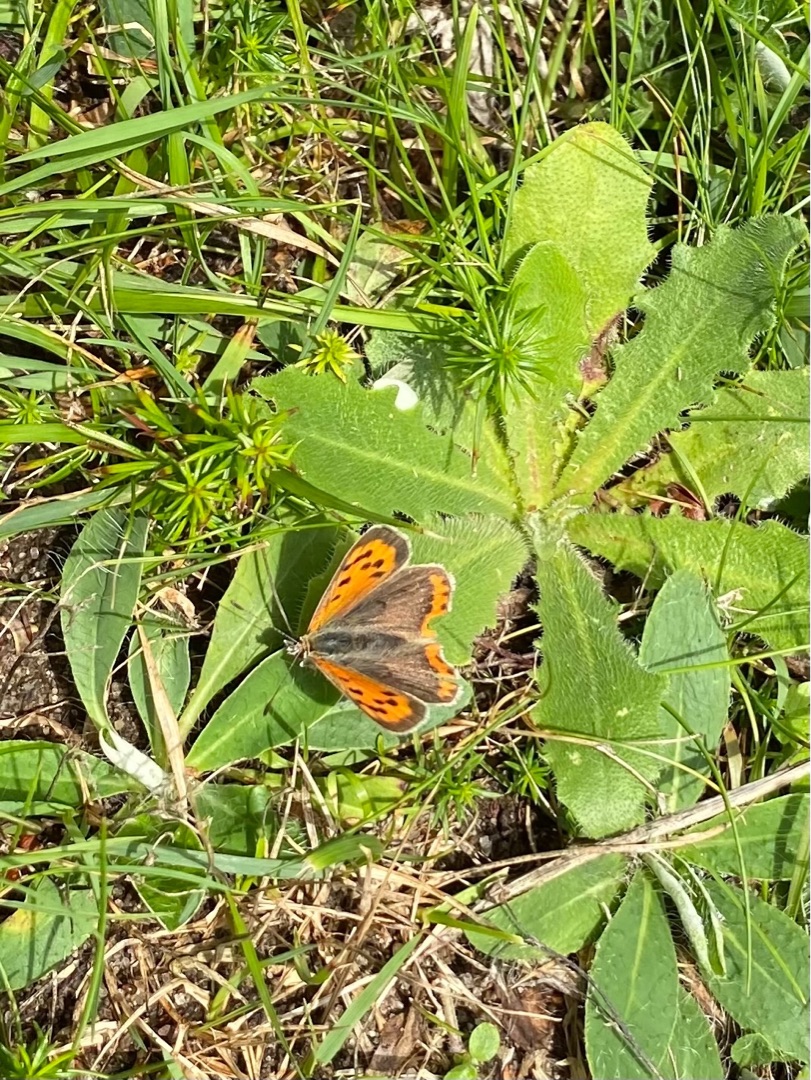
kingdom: Animalia
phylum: Arthropoda
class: Insecta
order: Lepidoptera
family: Lycaenidae
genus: Lycaena
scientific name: Lycaena phlaeas
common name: Lille ildfugl
